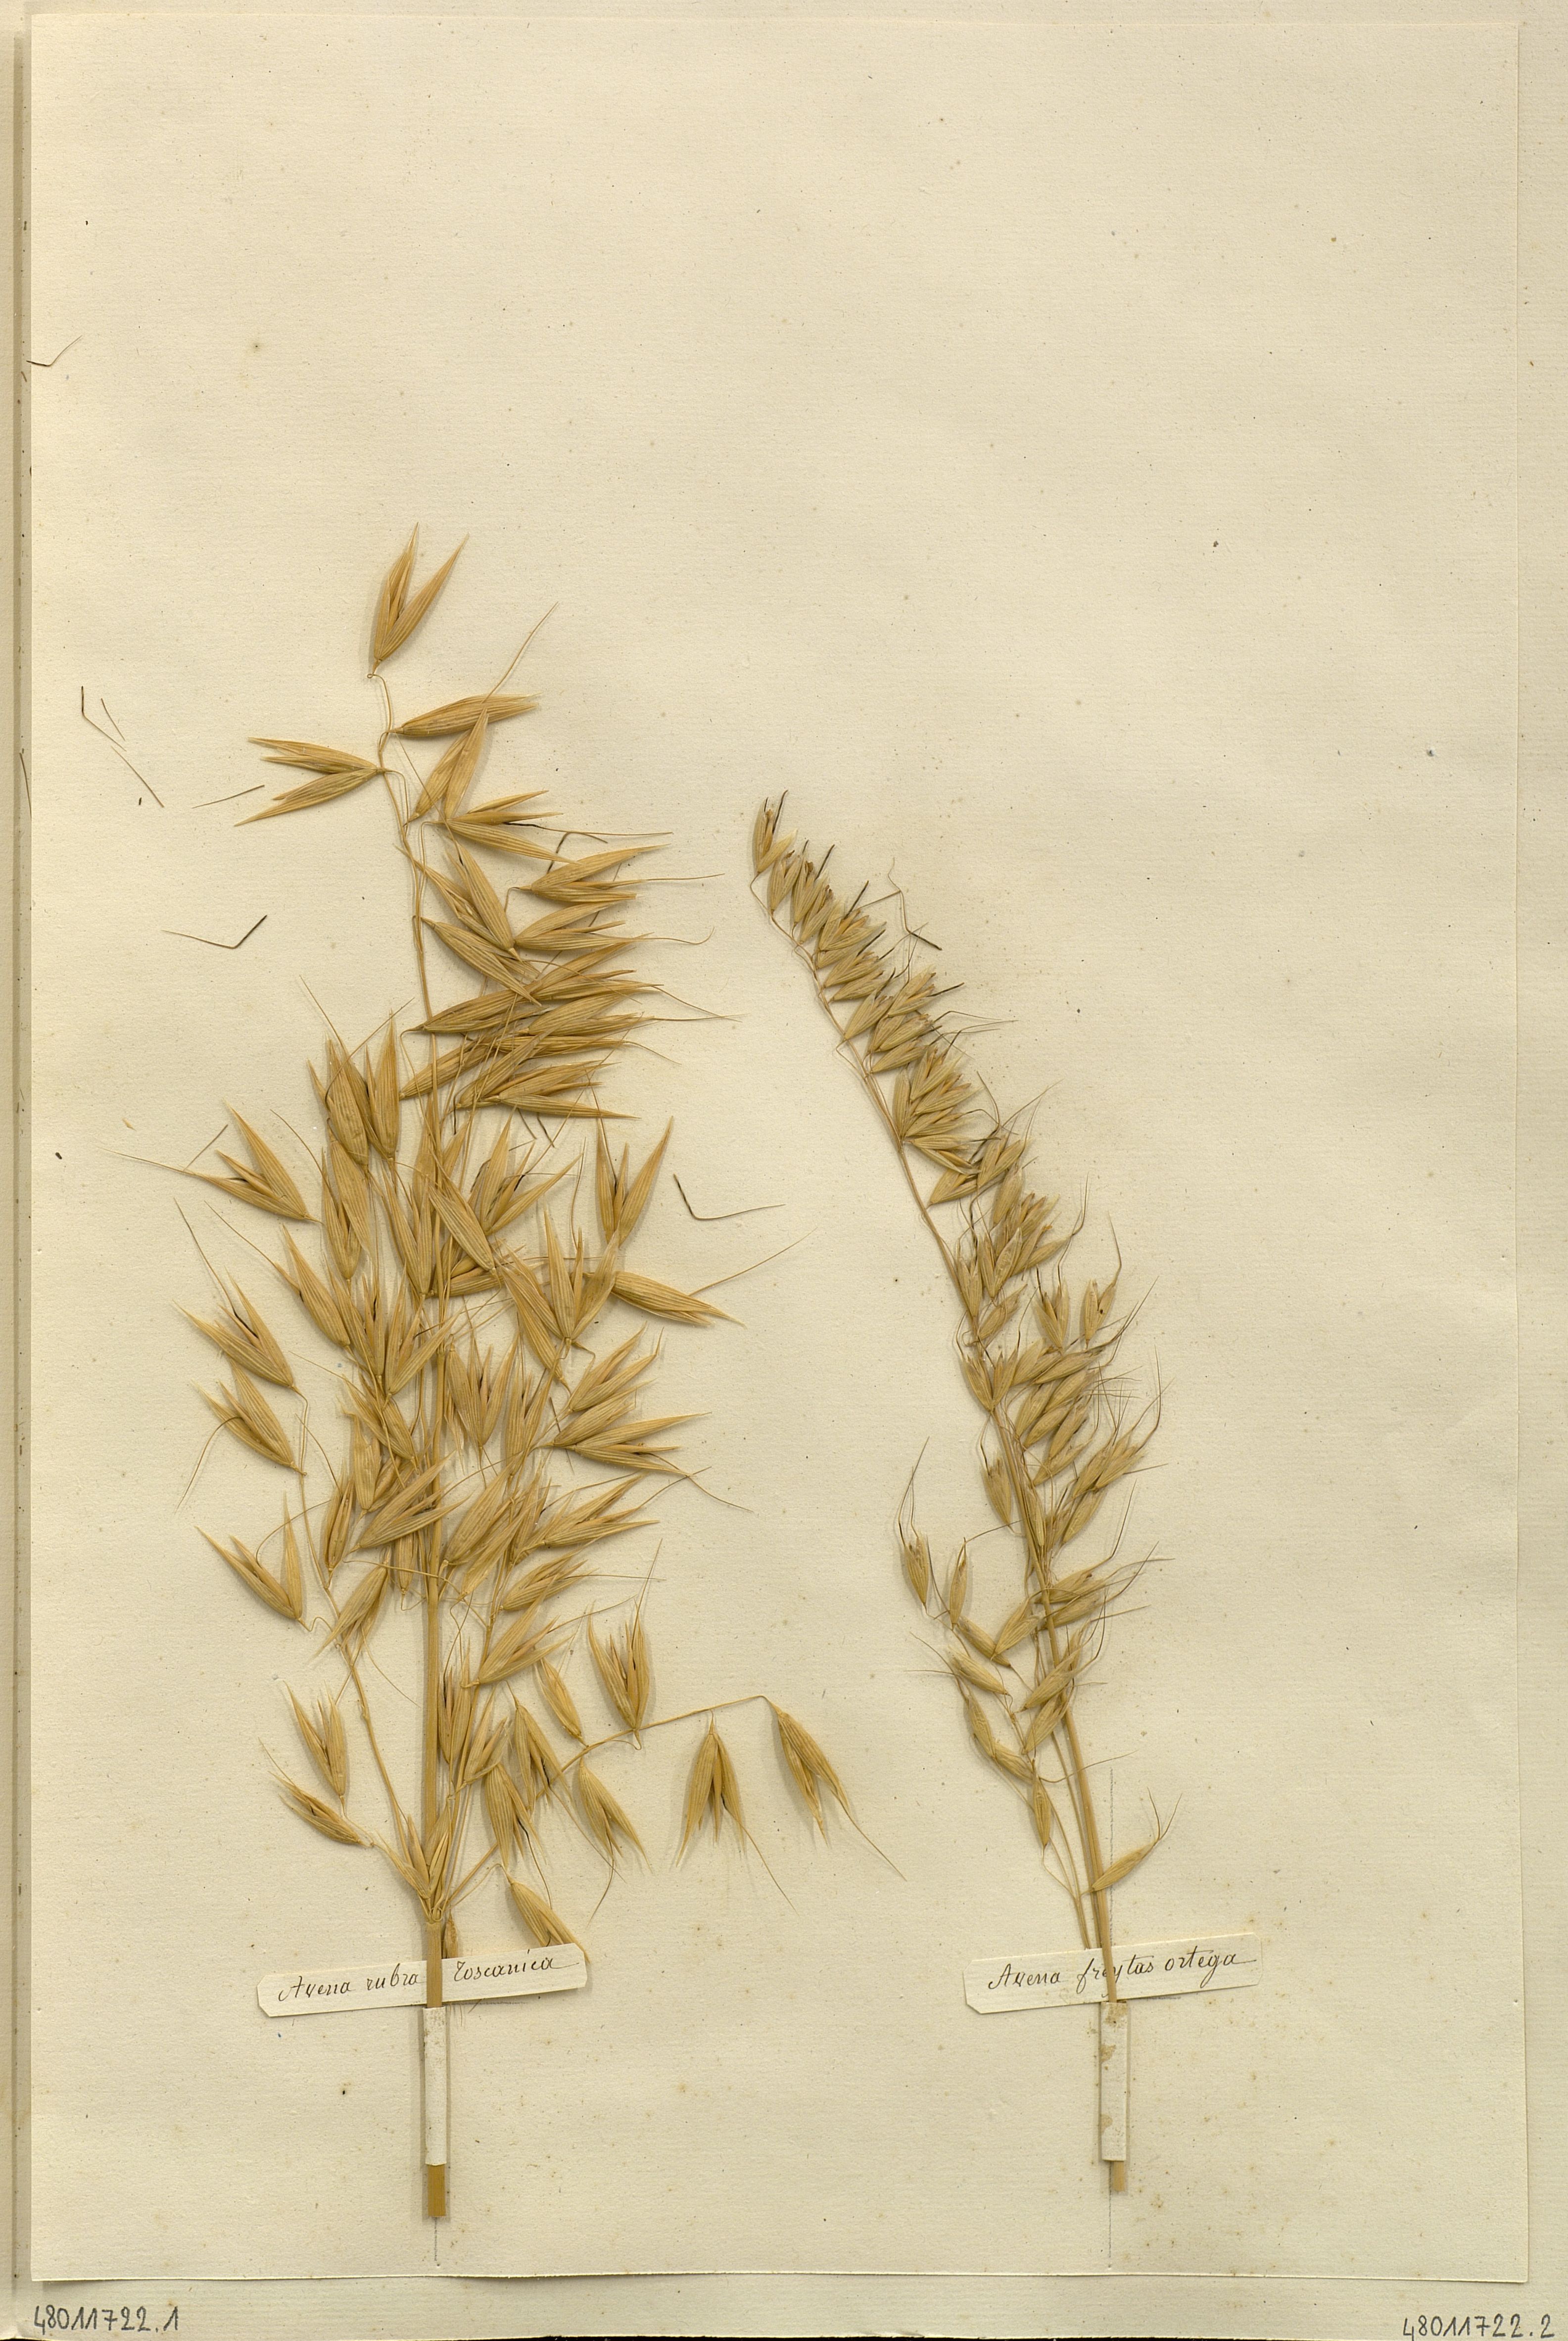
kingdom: Plantae
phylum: Tracheophyta
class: Liliopsida
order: Poales
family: Poaceae
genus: Avena
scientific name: Avena strigosa
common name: Bristle oat
